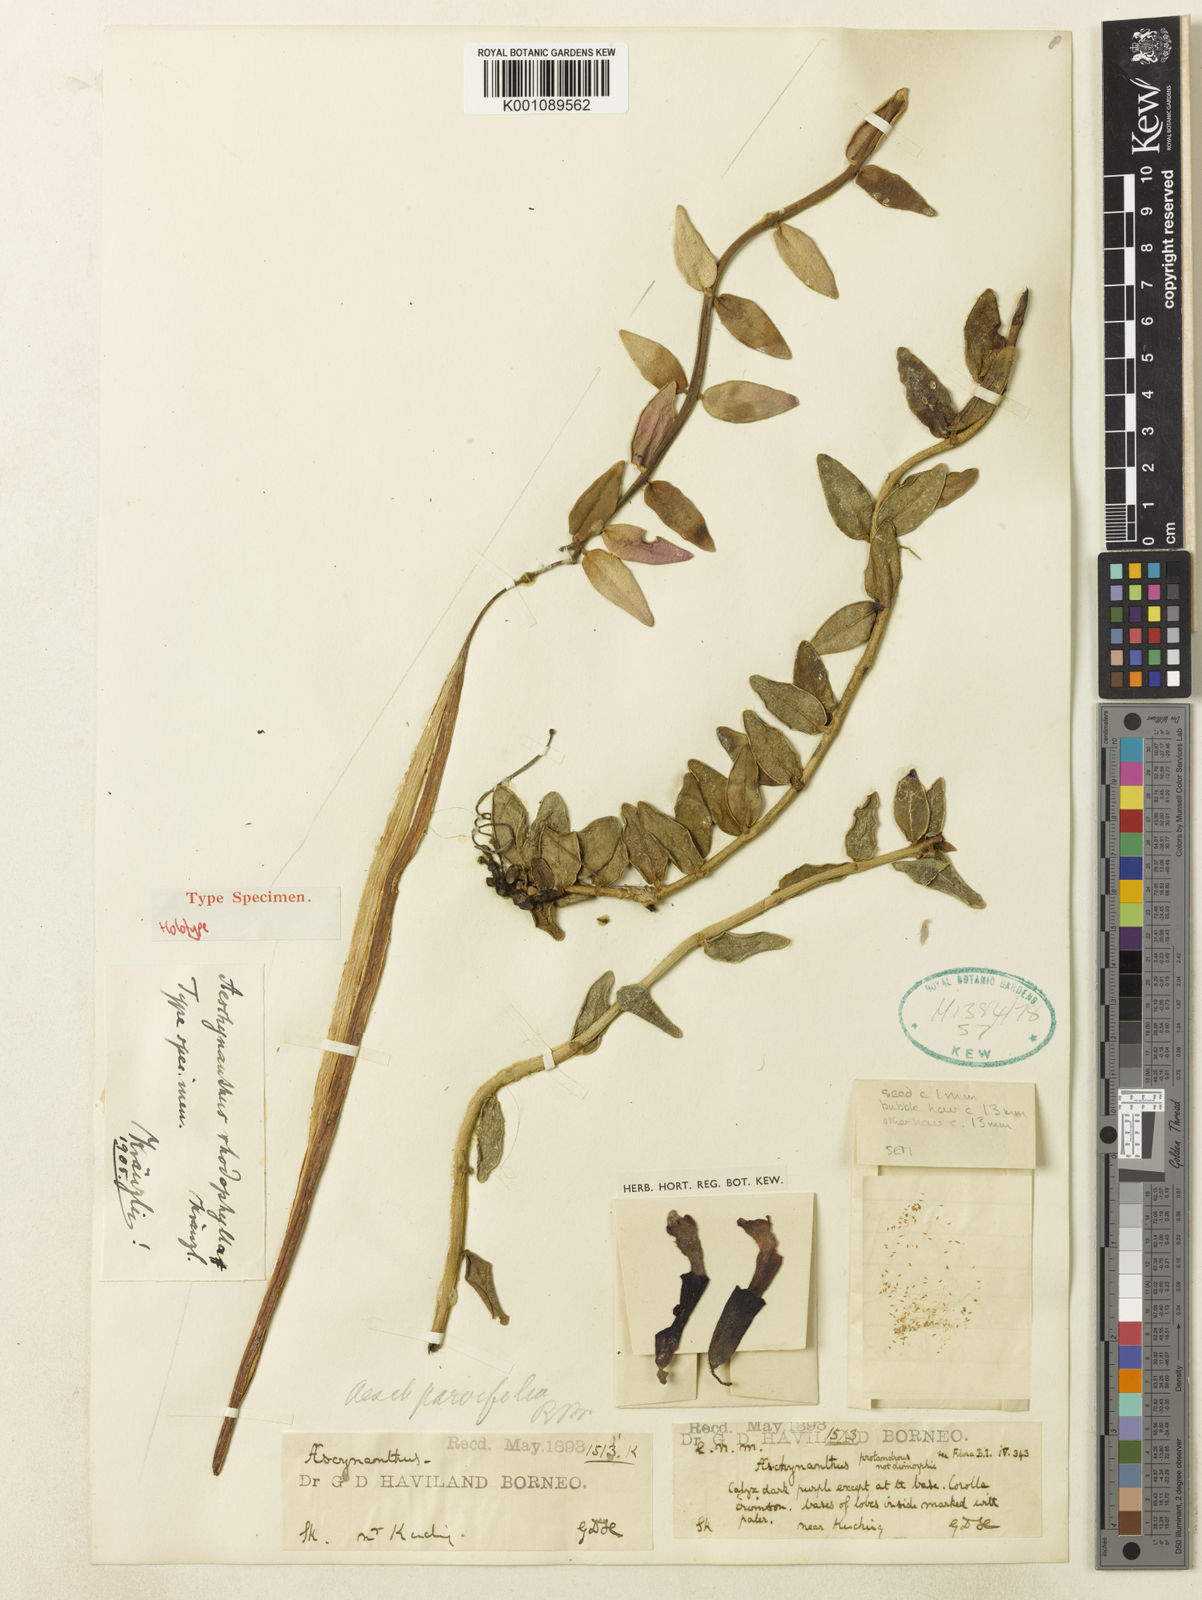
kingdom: Plantae
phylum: Tracheophyta
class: Magnoliopsida
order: Lamiales
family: Gesneriaceae
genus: Aeschynanthus
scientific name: Aeschynanthus rhodophyllus
